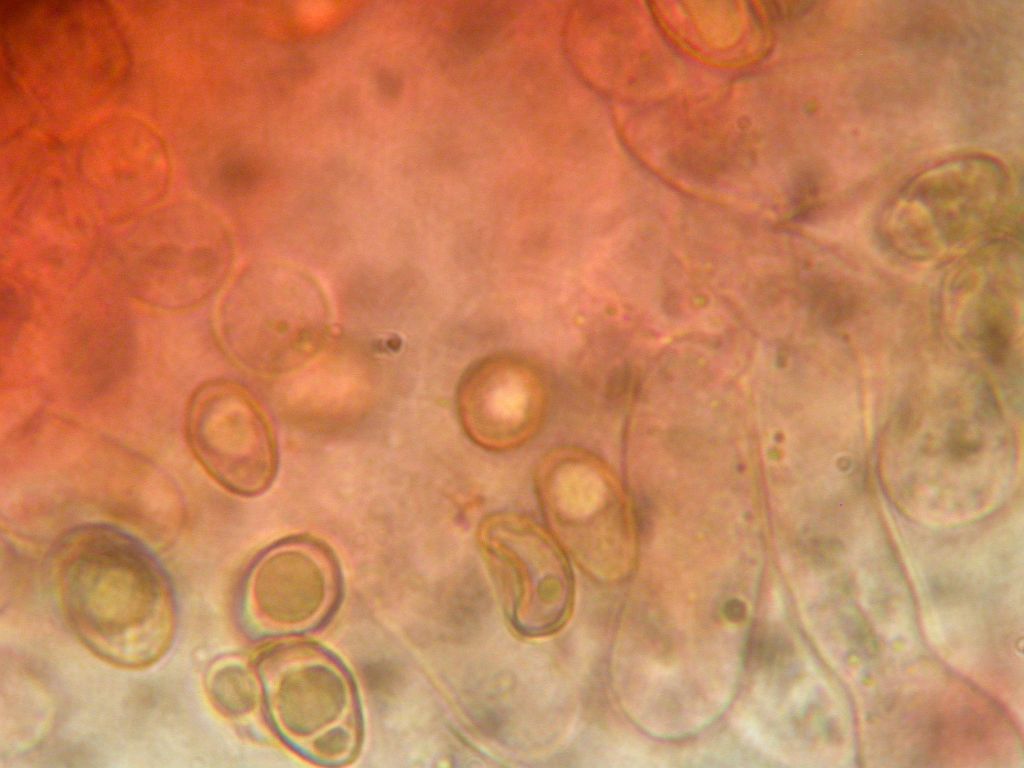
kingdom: Fungi
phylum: Basidiomycota
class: Agaricomycetes
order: Agaricales
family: Crepidotaceae
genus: Crepidotus
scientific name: Crepidotus caspari
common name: Lundells muslingesvamp
